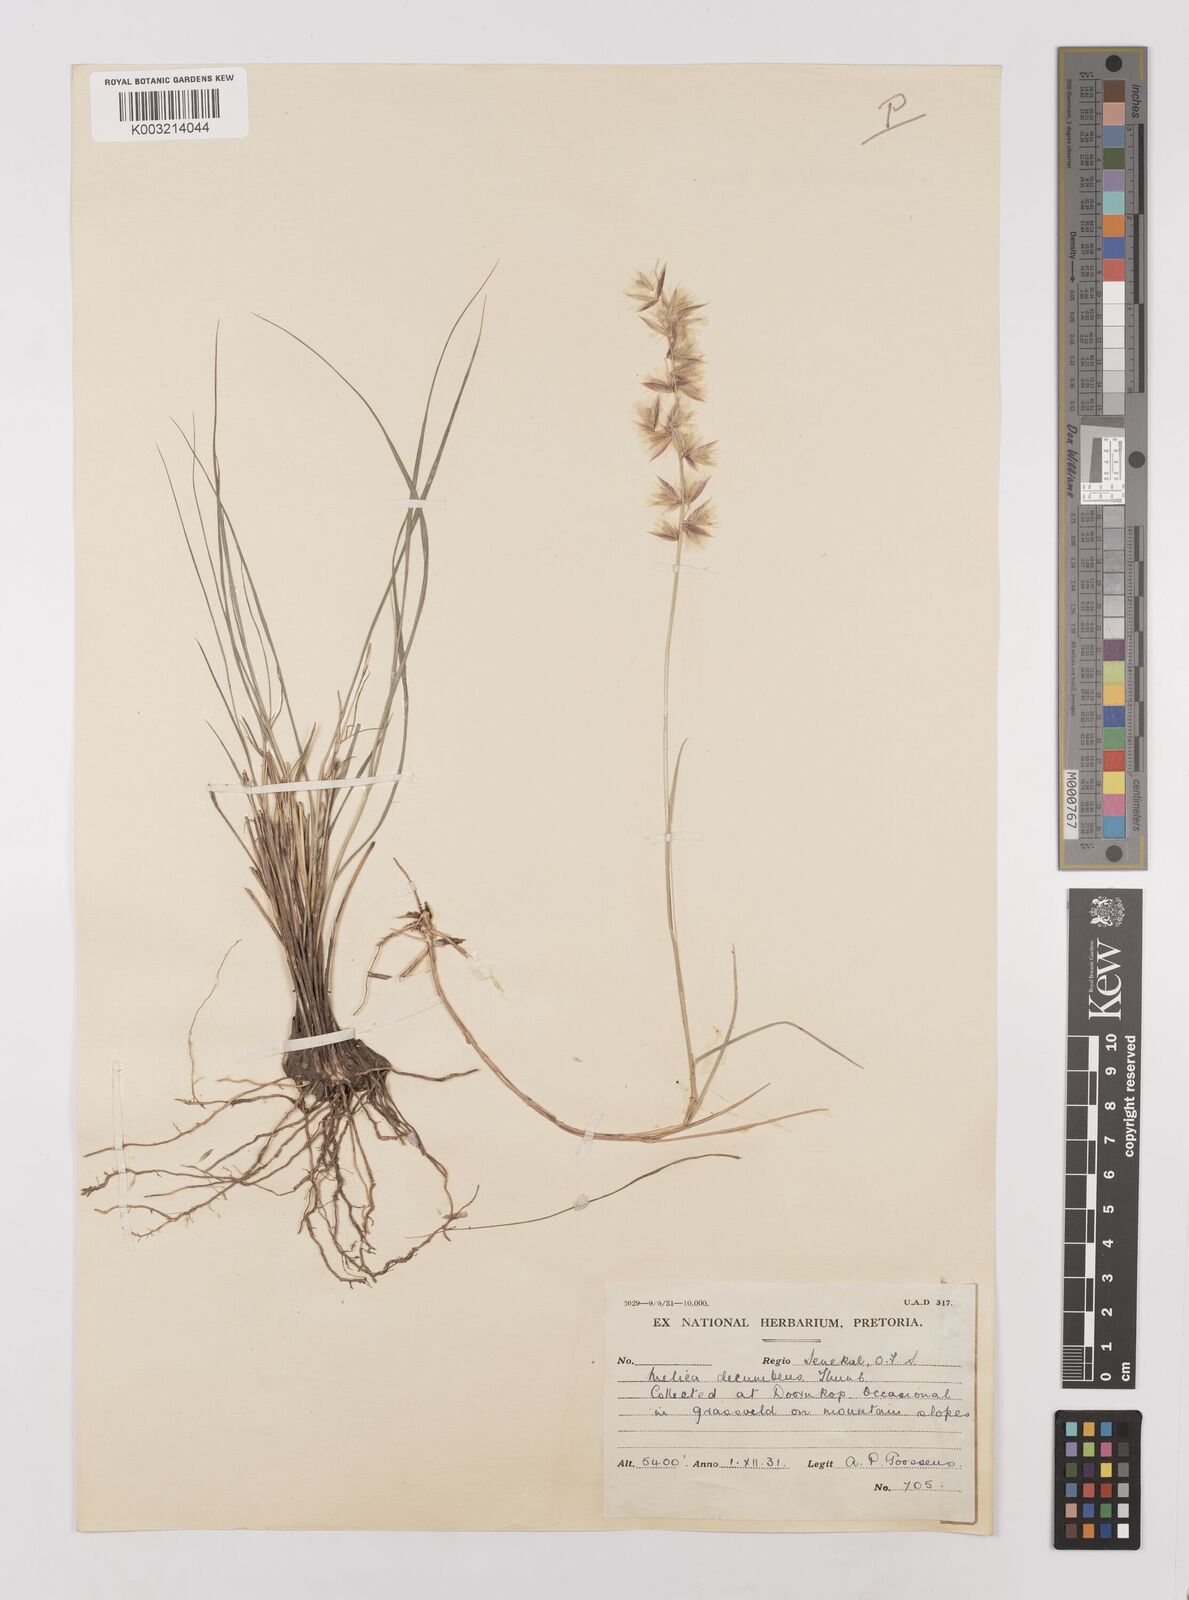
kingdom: Plantae
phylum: Tracheophyta
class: Liliopsida
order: Poales
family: Poaceae
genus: Melica
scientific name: Melica dendroides
